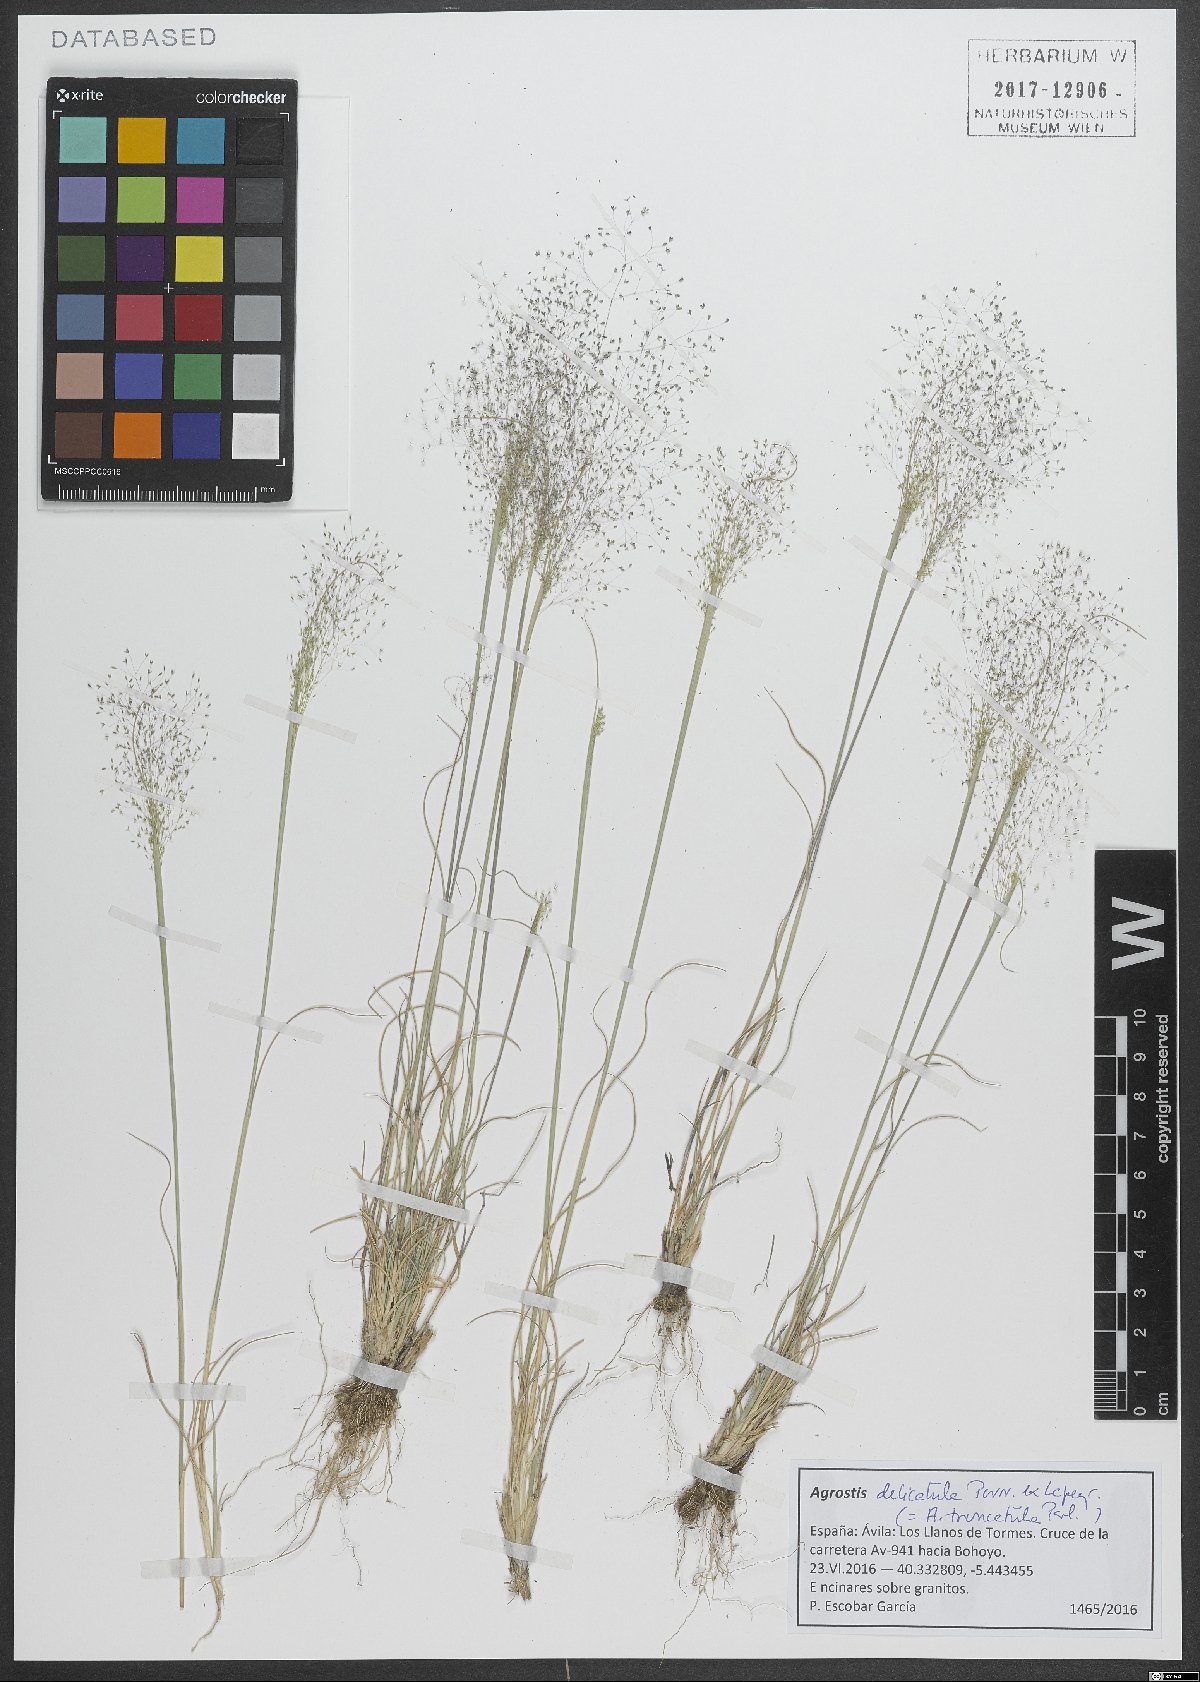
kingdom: Plantae
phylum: Tracheophyta
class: Liliopsida
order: Poales
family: Poaceae
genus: Agrostis
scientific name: Agrostis castellana
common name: Highland bent
